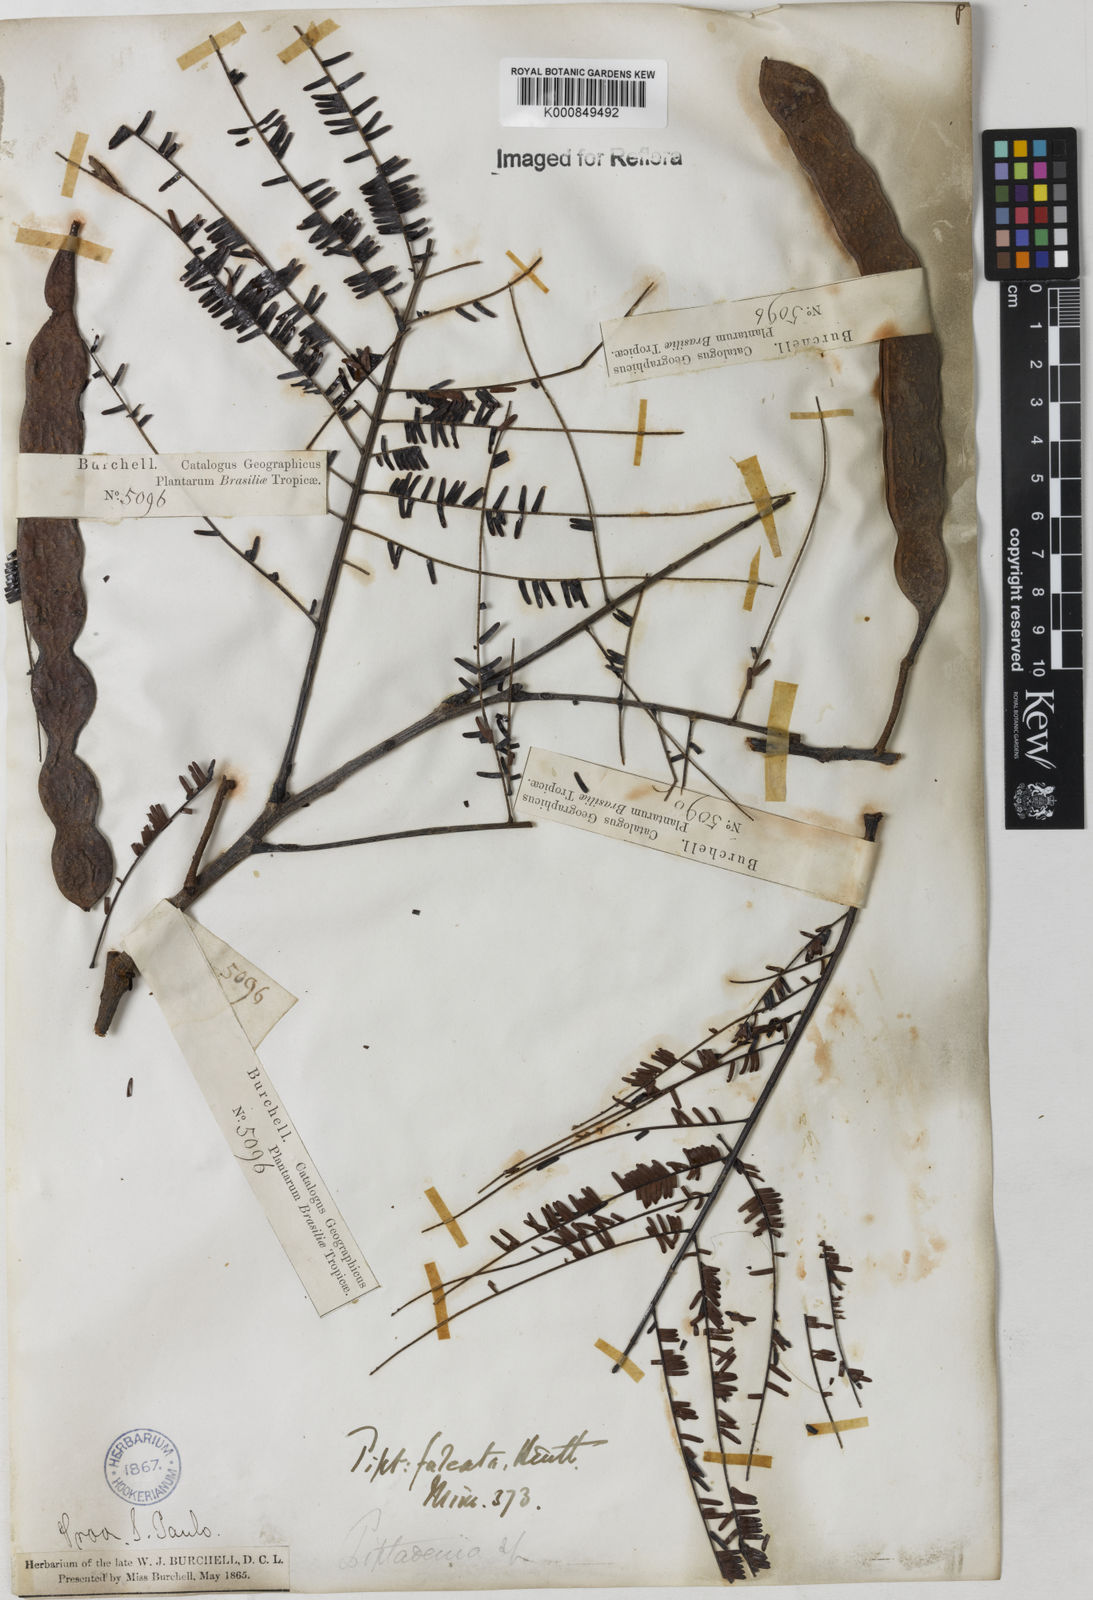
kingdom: Plantae
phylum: Tracheophyta
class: Magnoliopsida
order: Fabales
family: Fabaceae
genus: Anadenanthera
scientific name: Anadenanthera peregrina
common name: Cohoba
